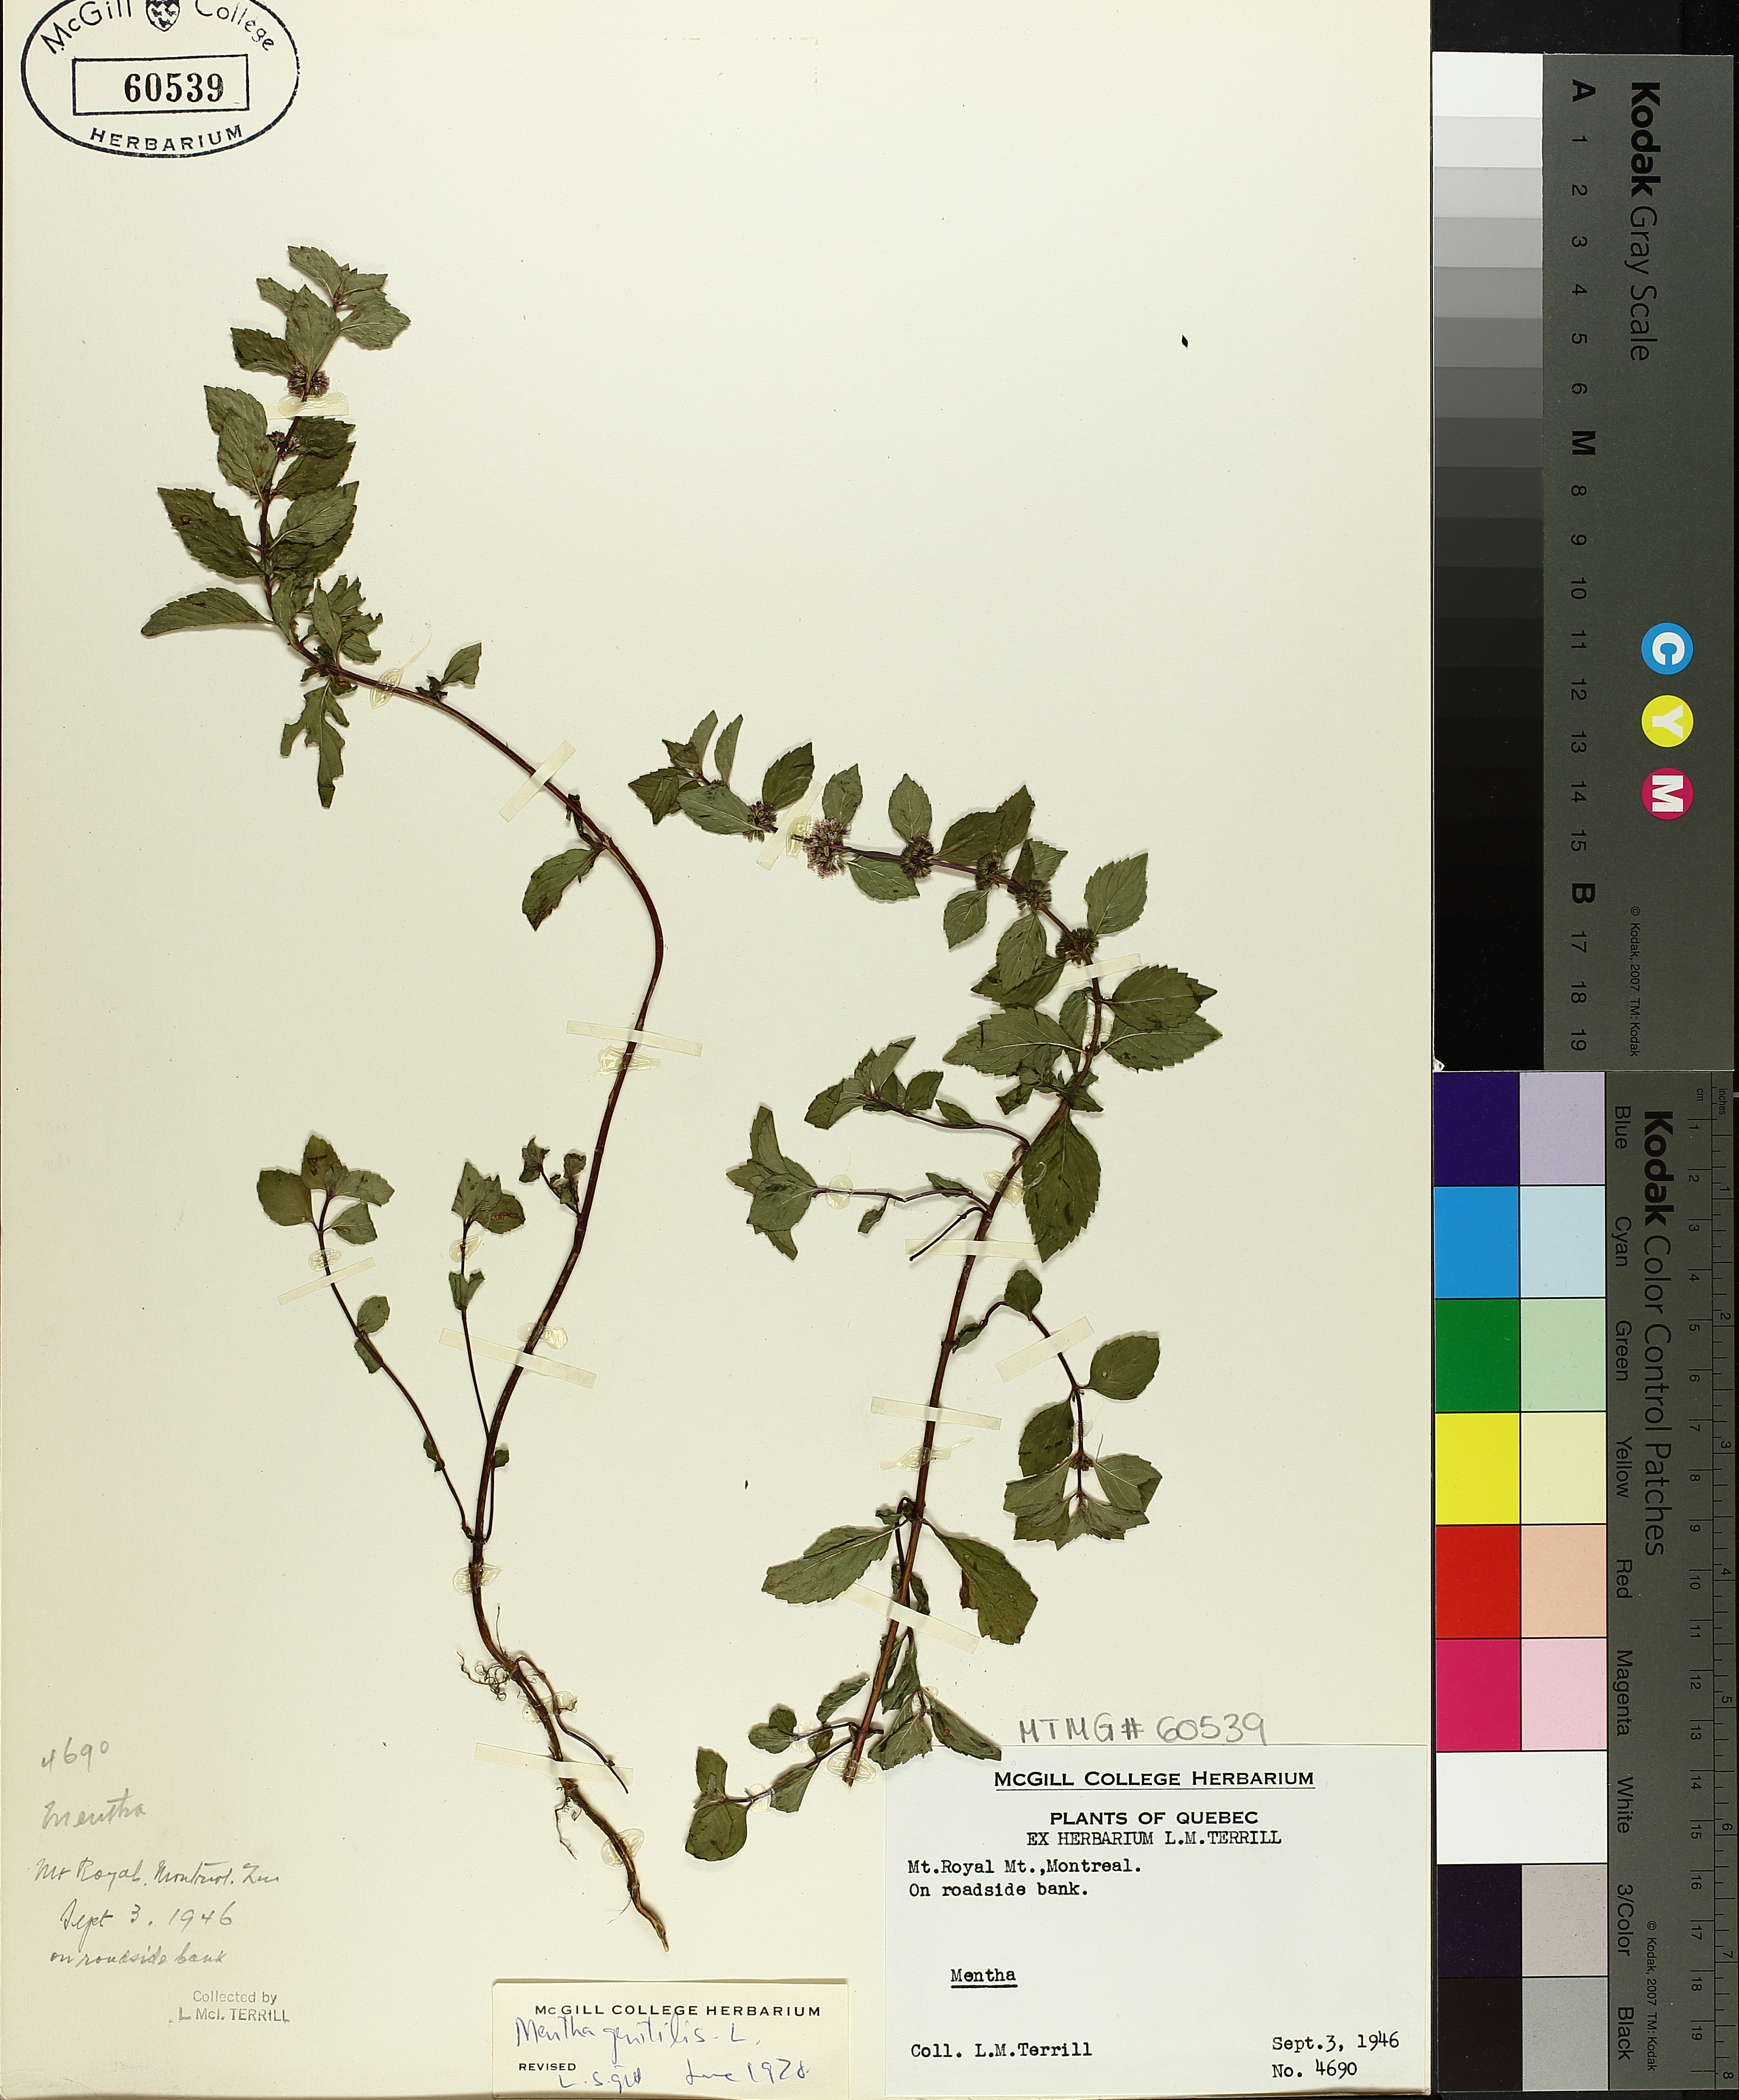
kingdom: Plantae
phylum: Tracheophyta
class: Magnoliopsida
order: Lamiales
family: Lamiaceae
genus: Mentha
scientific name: Mentha arvensis
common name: Corn mint
